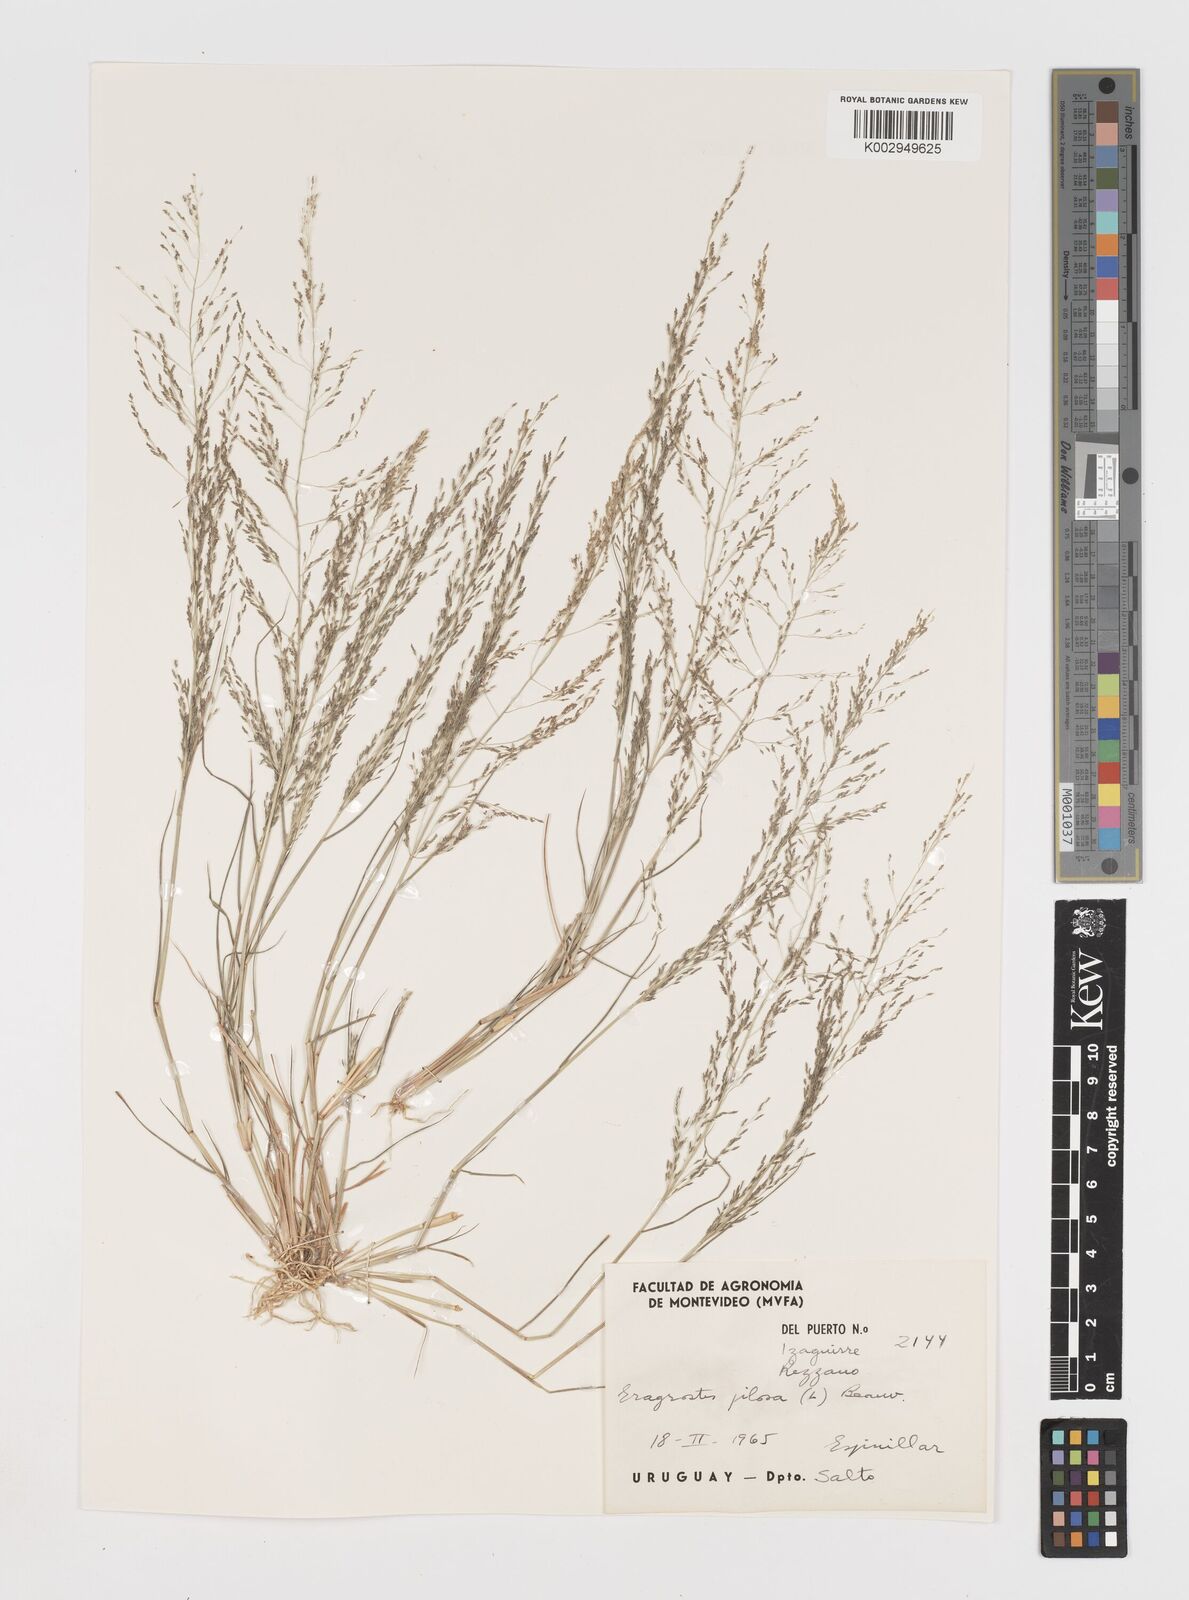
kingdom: Plantae
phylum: Tracheophyta
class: Liliopsida
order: Poales
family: Poaceae
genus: Eragrostis
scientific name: Eragrostis pilosa
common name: Indian lovegrass
